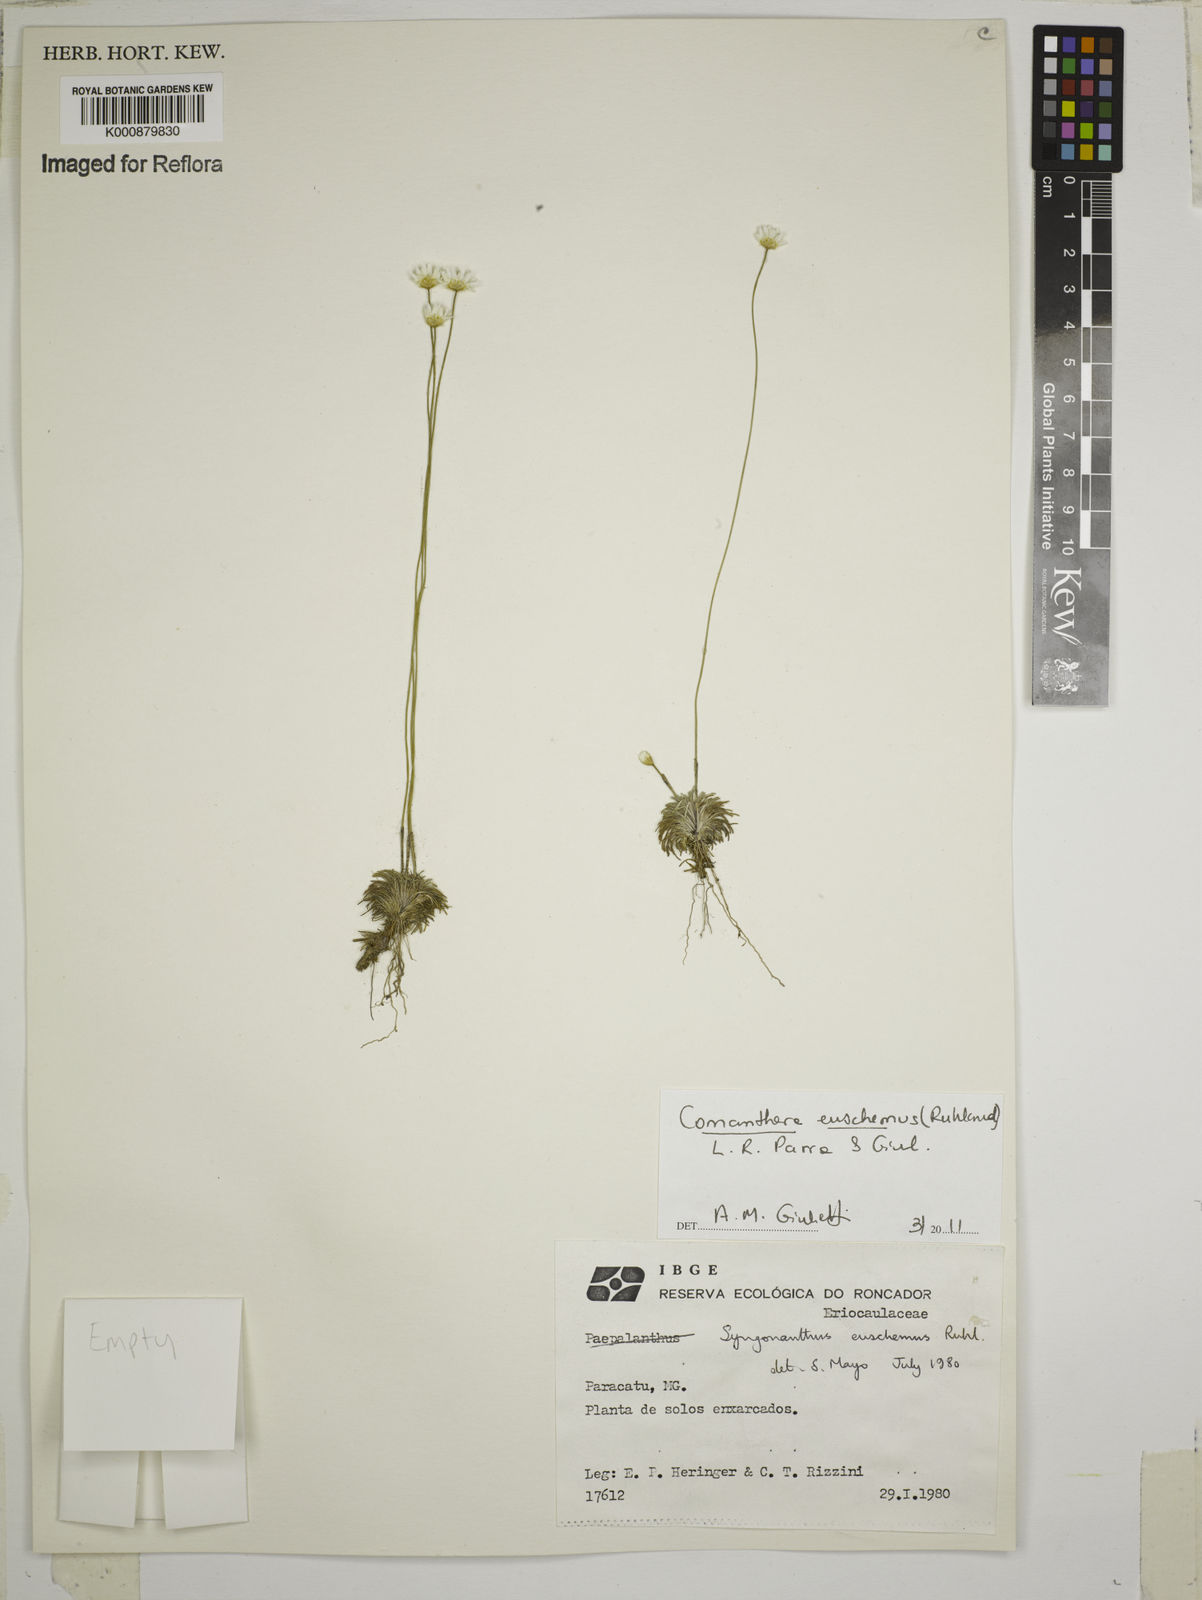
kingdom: Plantae
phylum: Tracheophyta
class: Liliopsida
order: Poales
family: Eriocaulaceae
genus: Comanthera
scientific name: Comanthera euschemus
